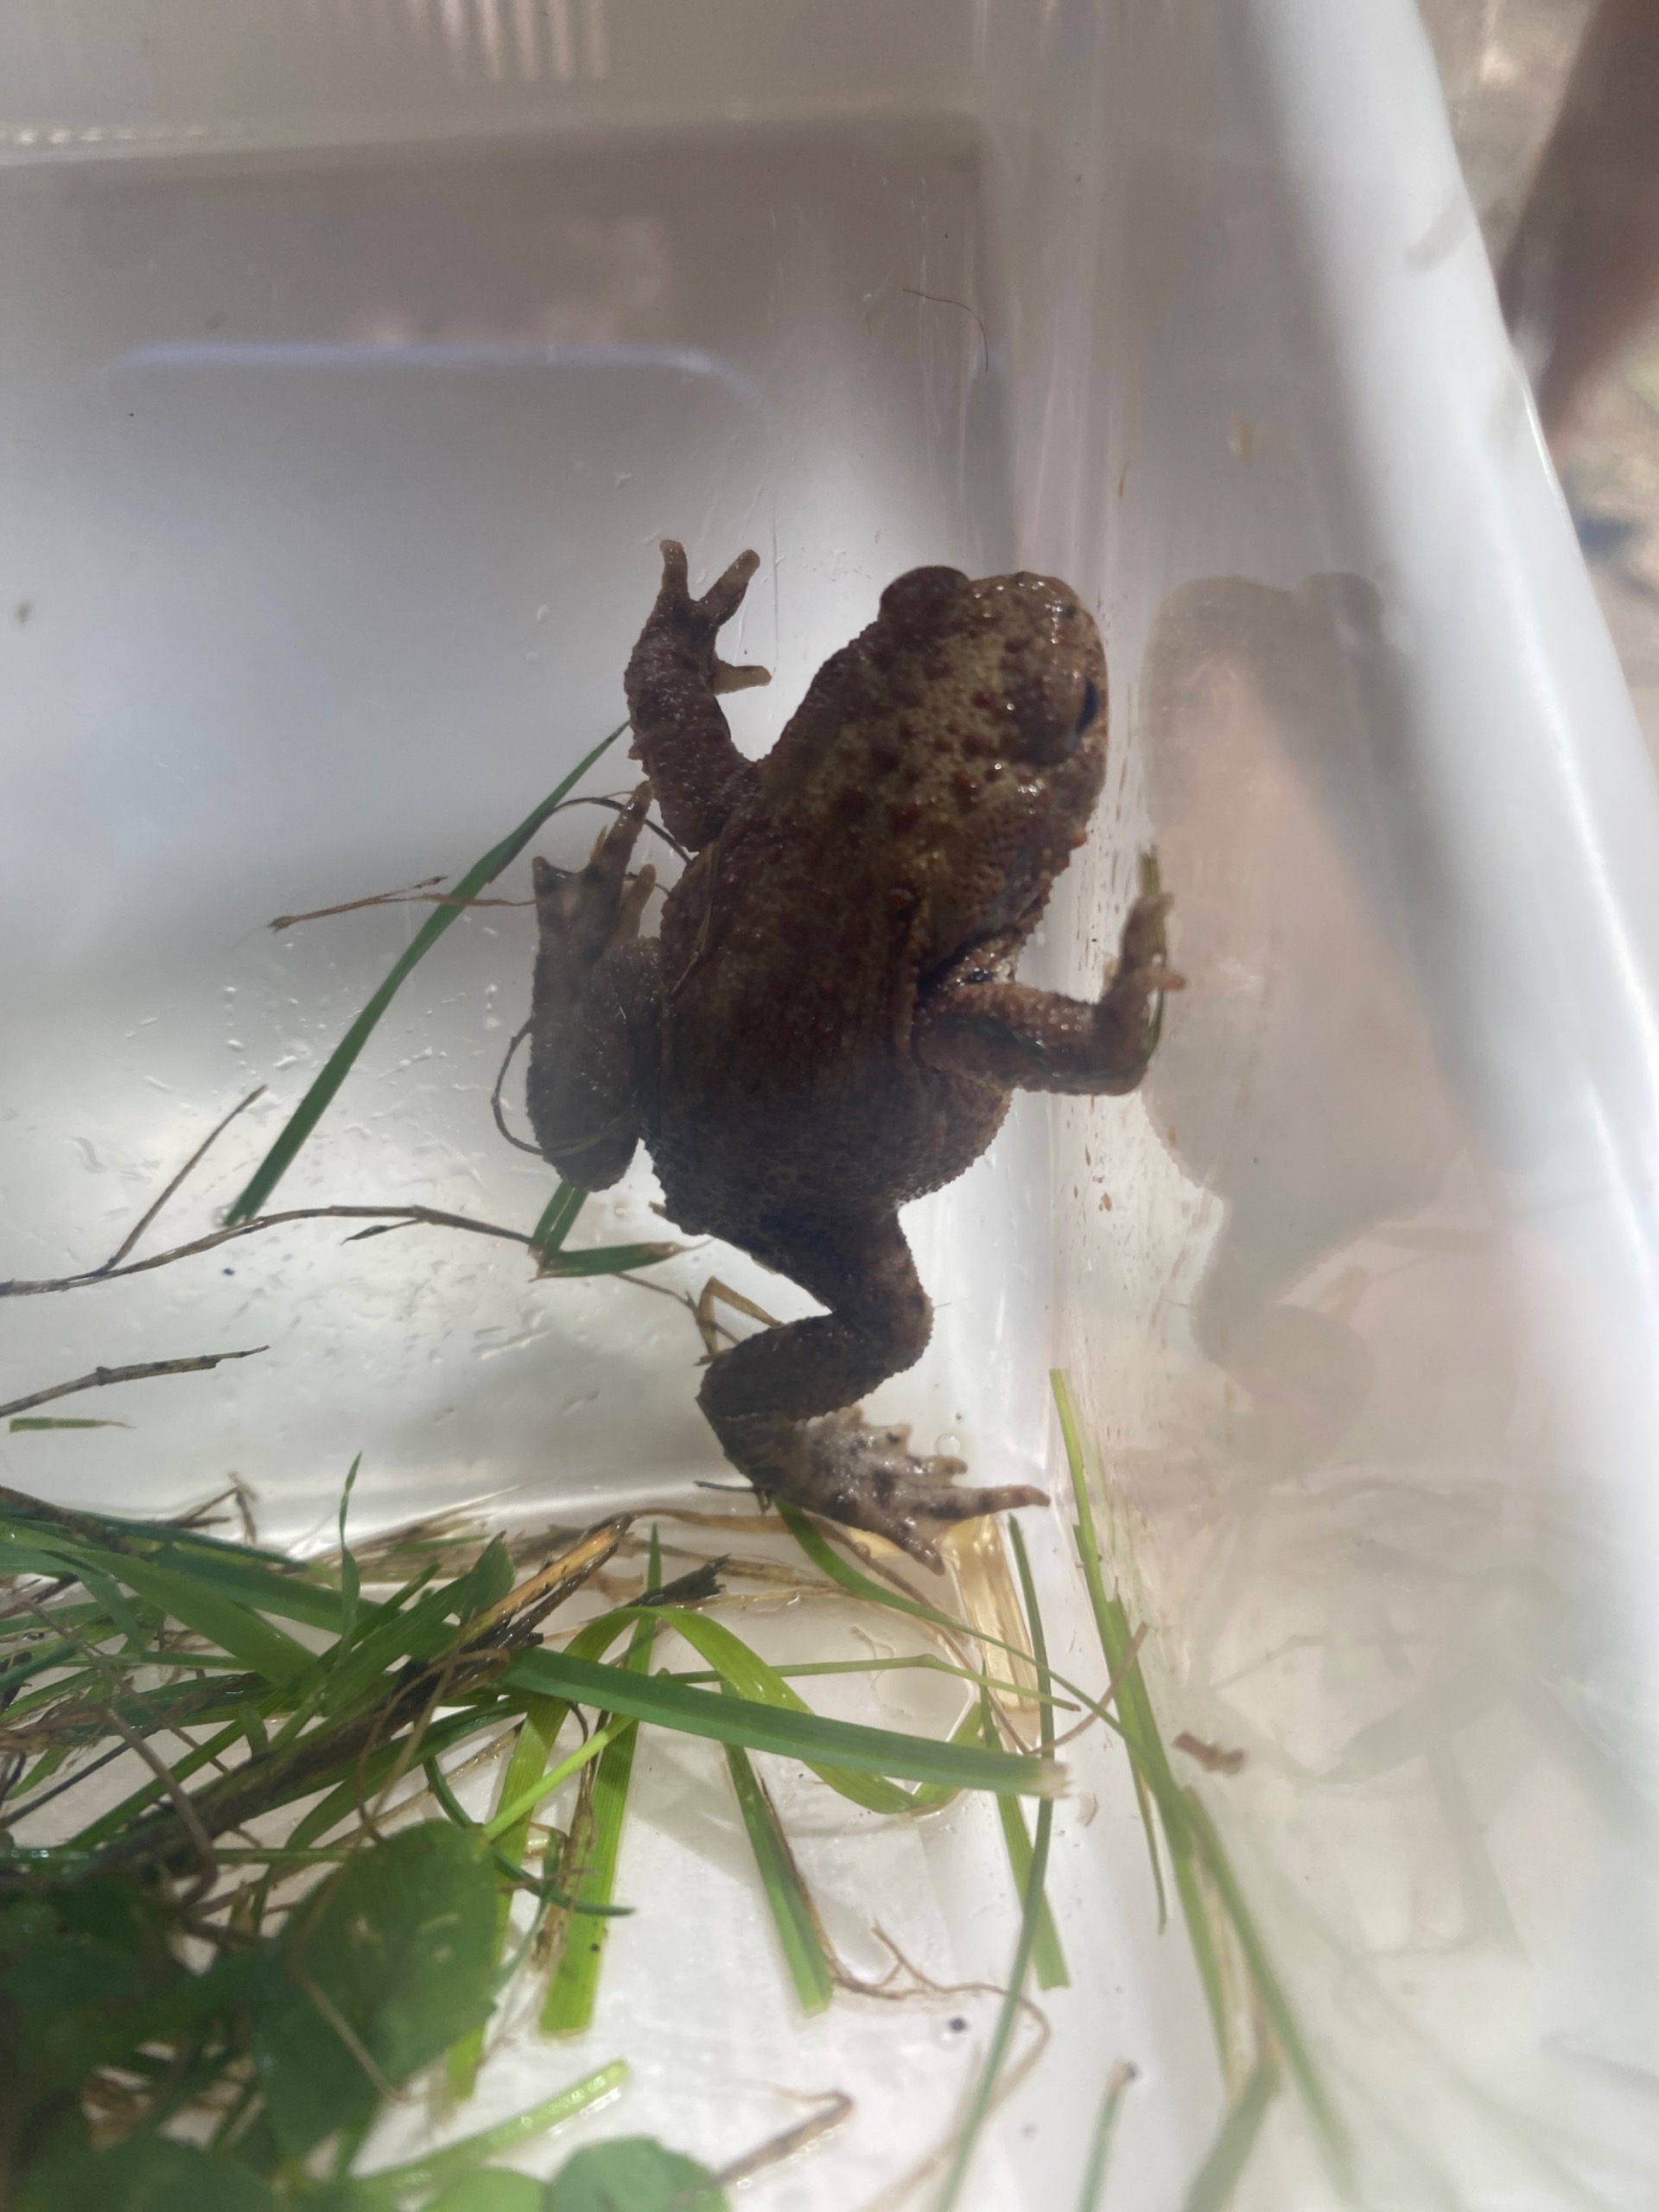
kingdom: Animalia
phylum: Chordata
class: Amphibia
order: Anura
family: Bufonidae
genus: Bufo
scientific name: Bufo bufo
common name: Skrubtudse
